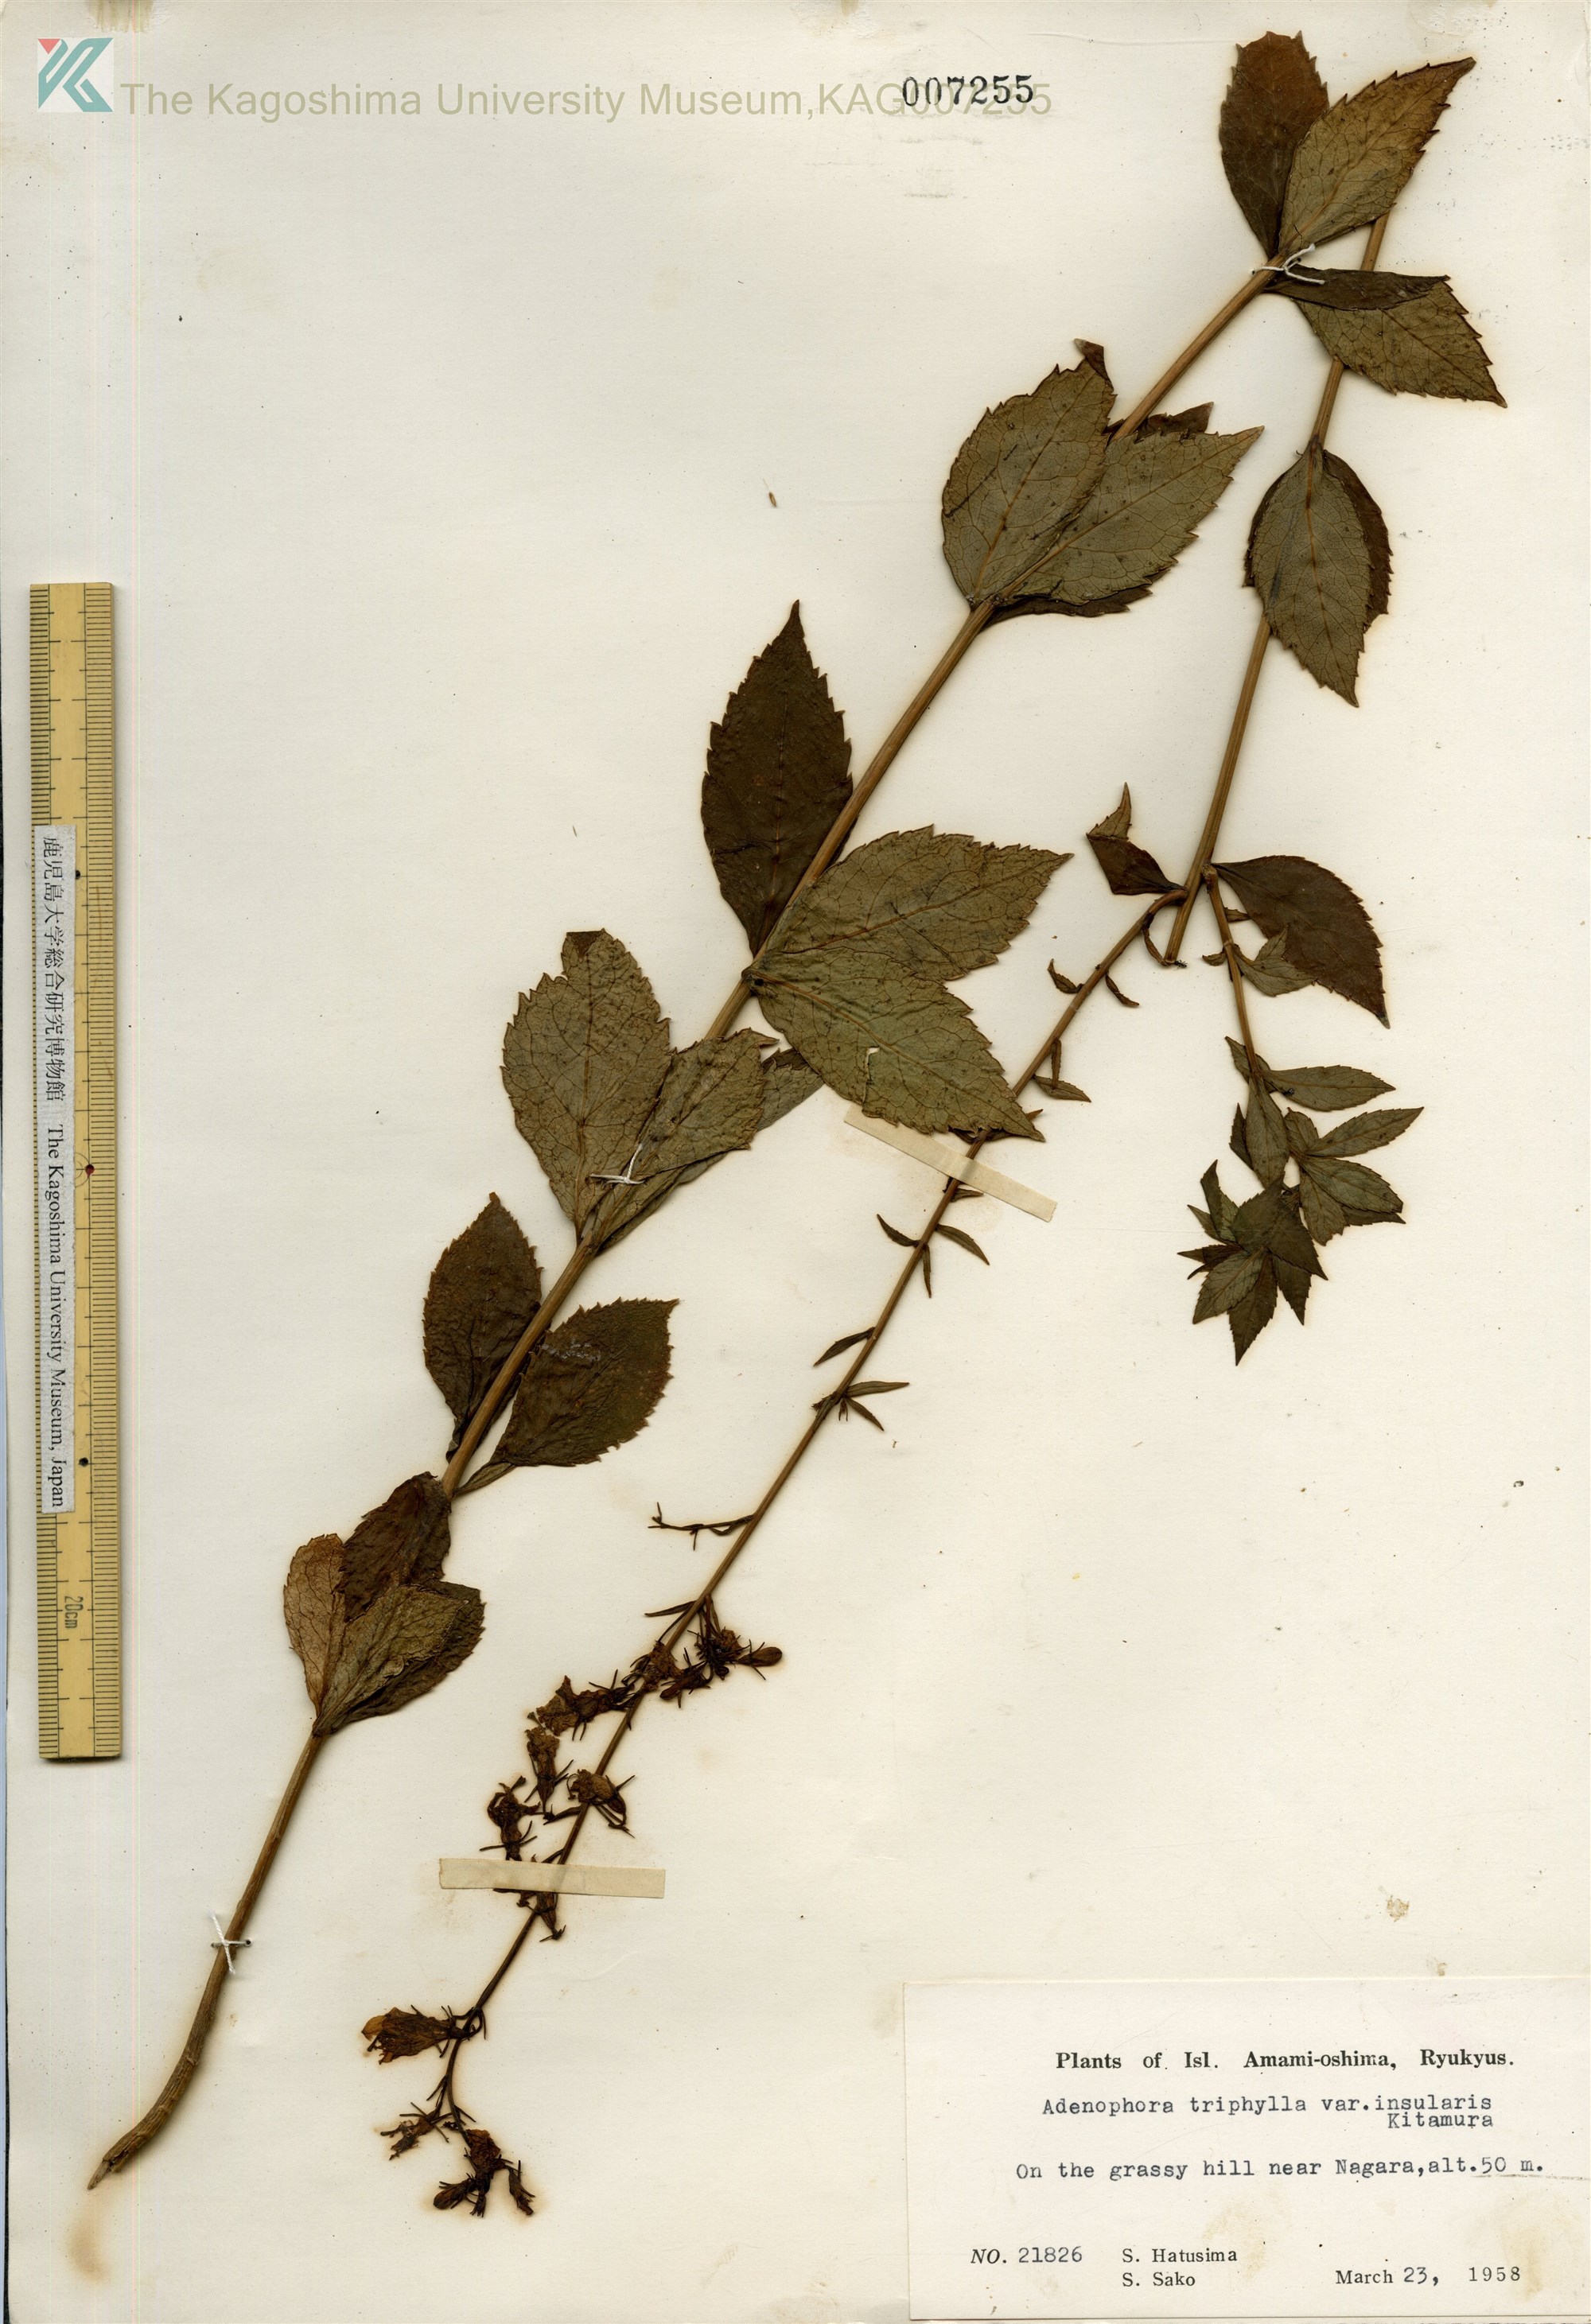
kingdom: Plantae
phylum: Tracheophyta
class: Magnoliopsida
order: Asterales
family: Campanulaceae
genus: Adenophora
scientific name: Adenophora tashiroi
